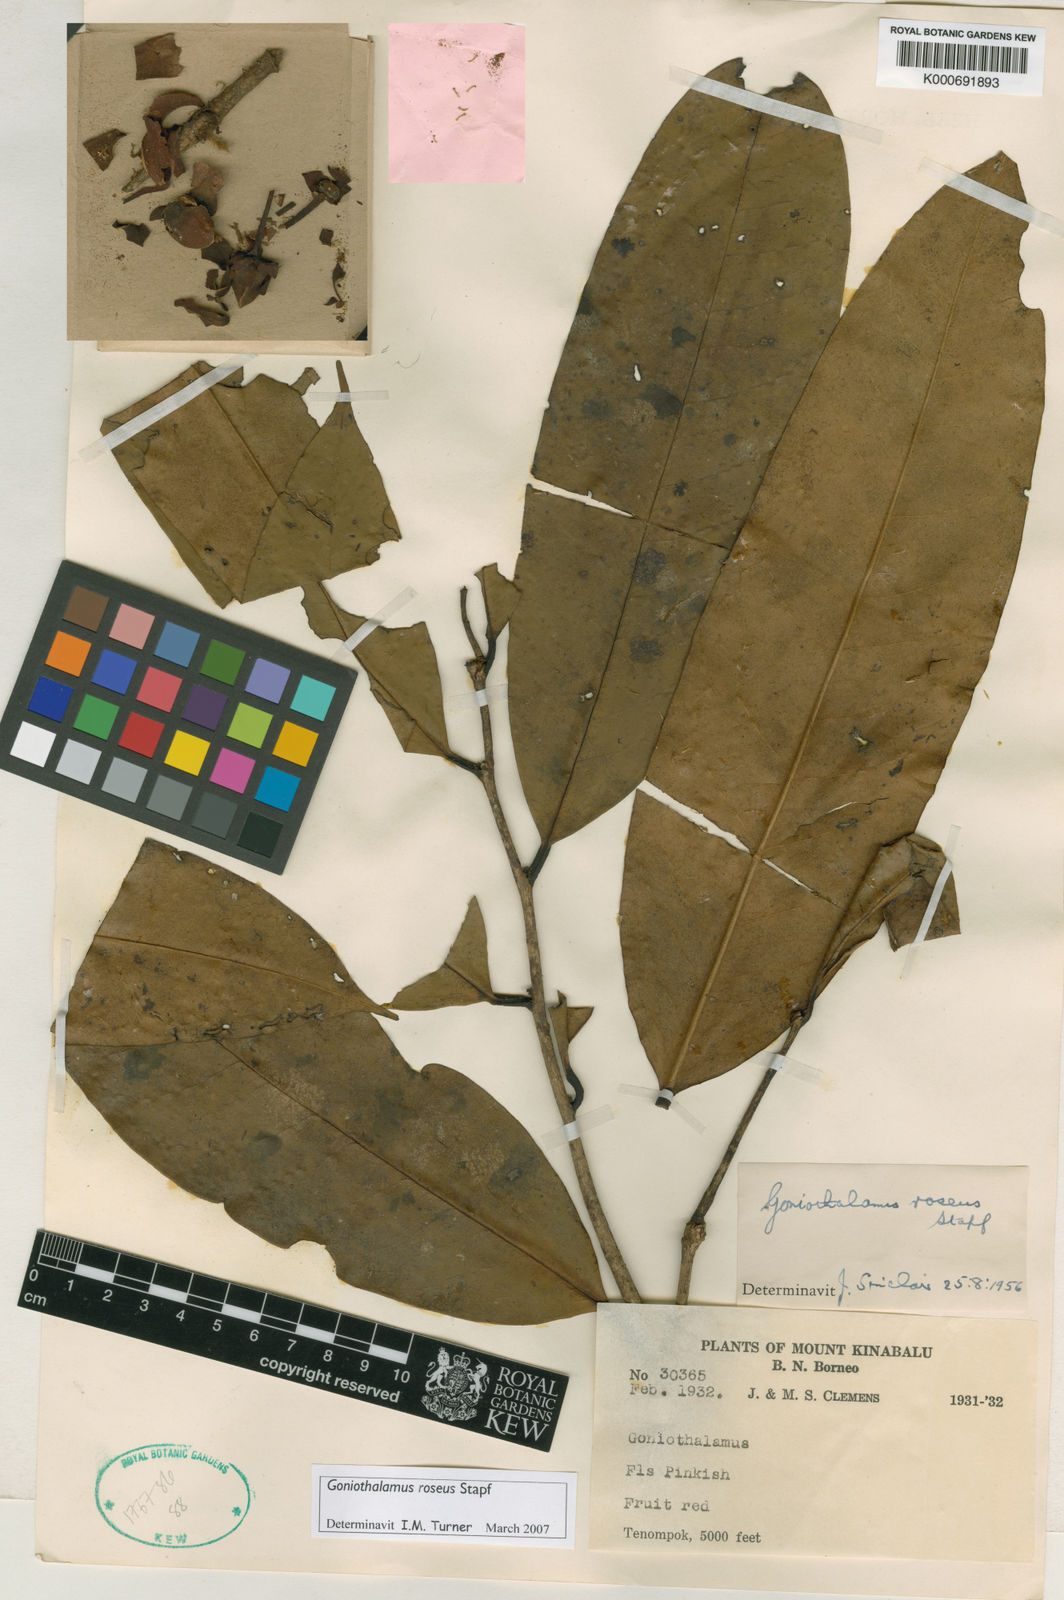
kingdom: Plantae
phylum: Tracheophyta
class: Magnoliopsida
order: Magnoliales
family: Annonaceae
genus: Goniothalamus
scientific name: Goniothalamus roseus
